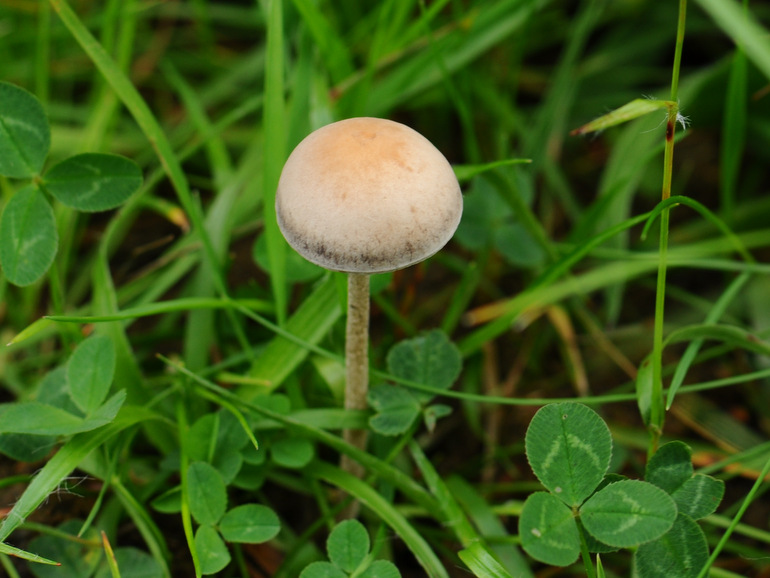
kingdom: Fungi
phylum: Basidiomycota
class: Agaricomycetes
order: Agaricales
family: Bolbitiaceae
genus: Panaeolus
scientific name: Panaeolus subfirmus
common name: fælled-glanshat
